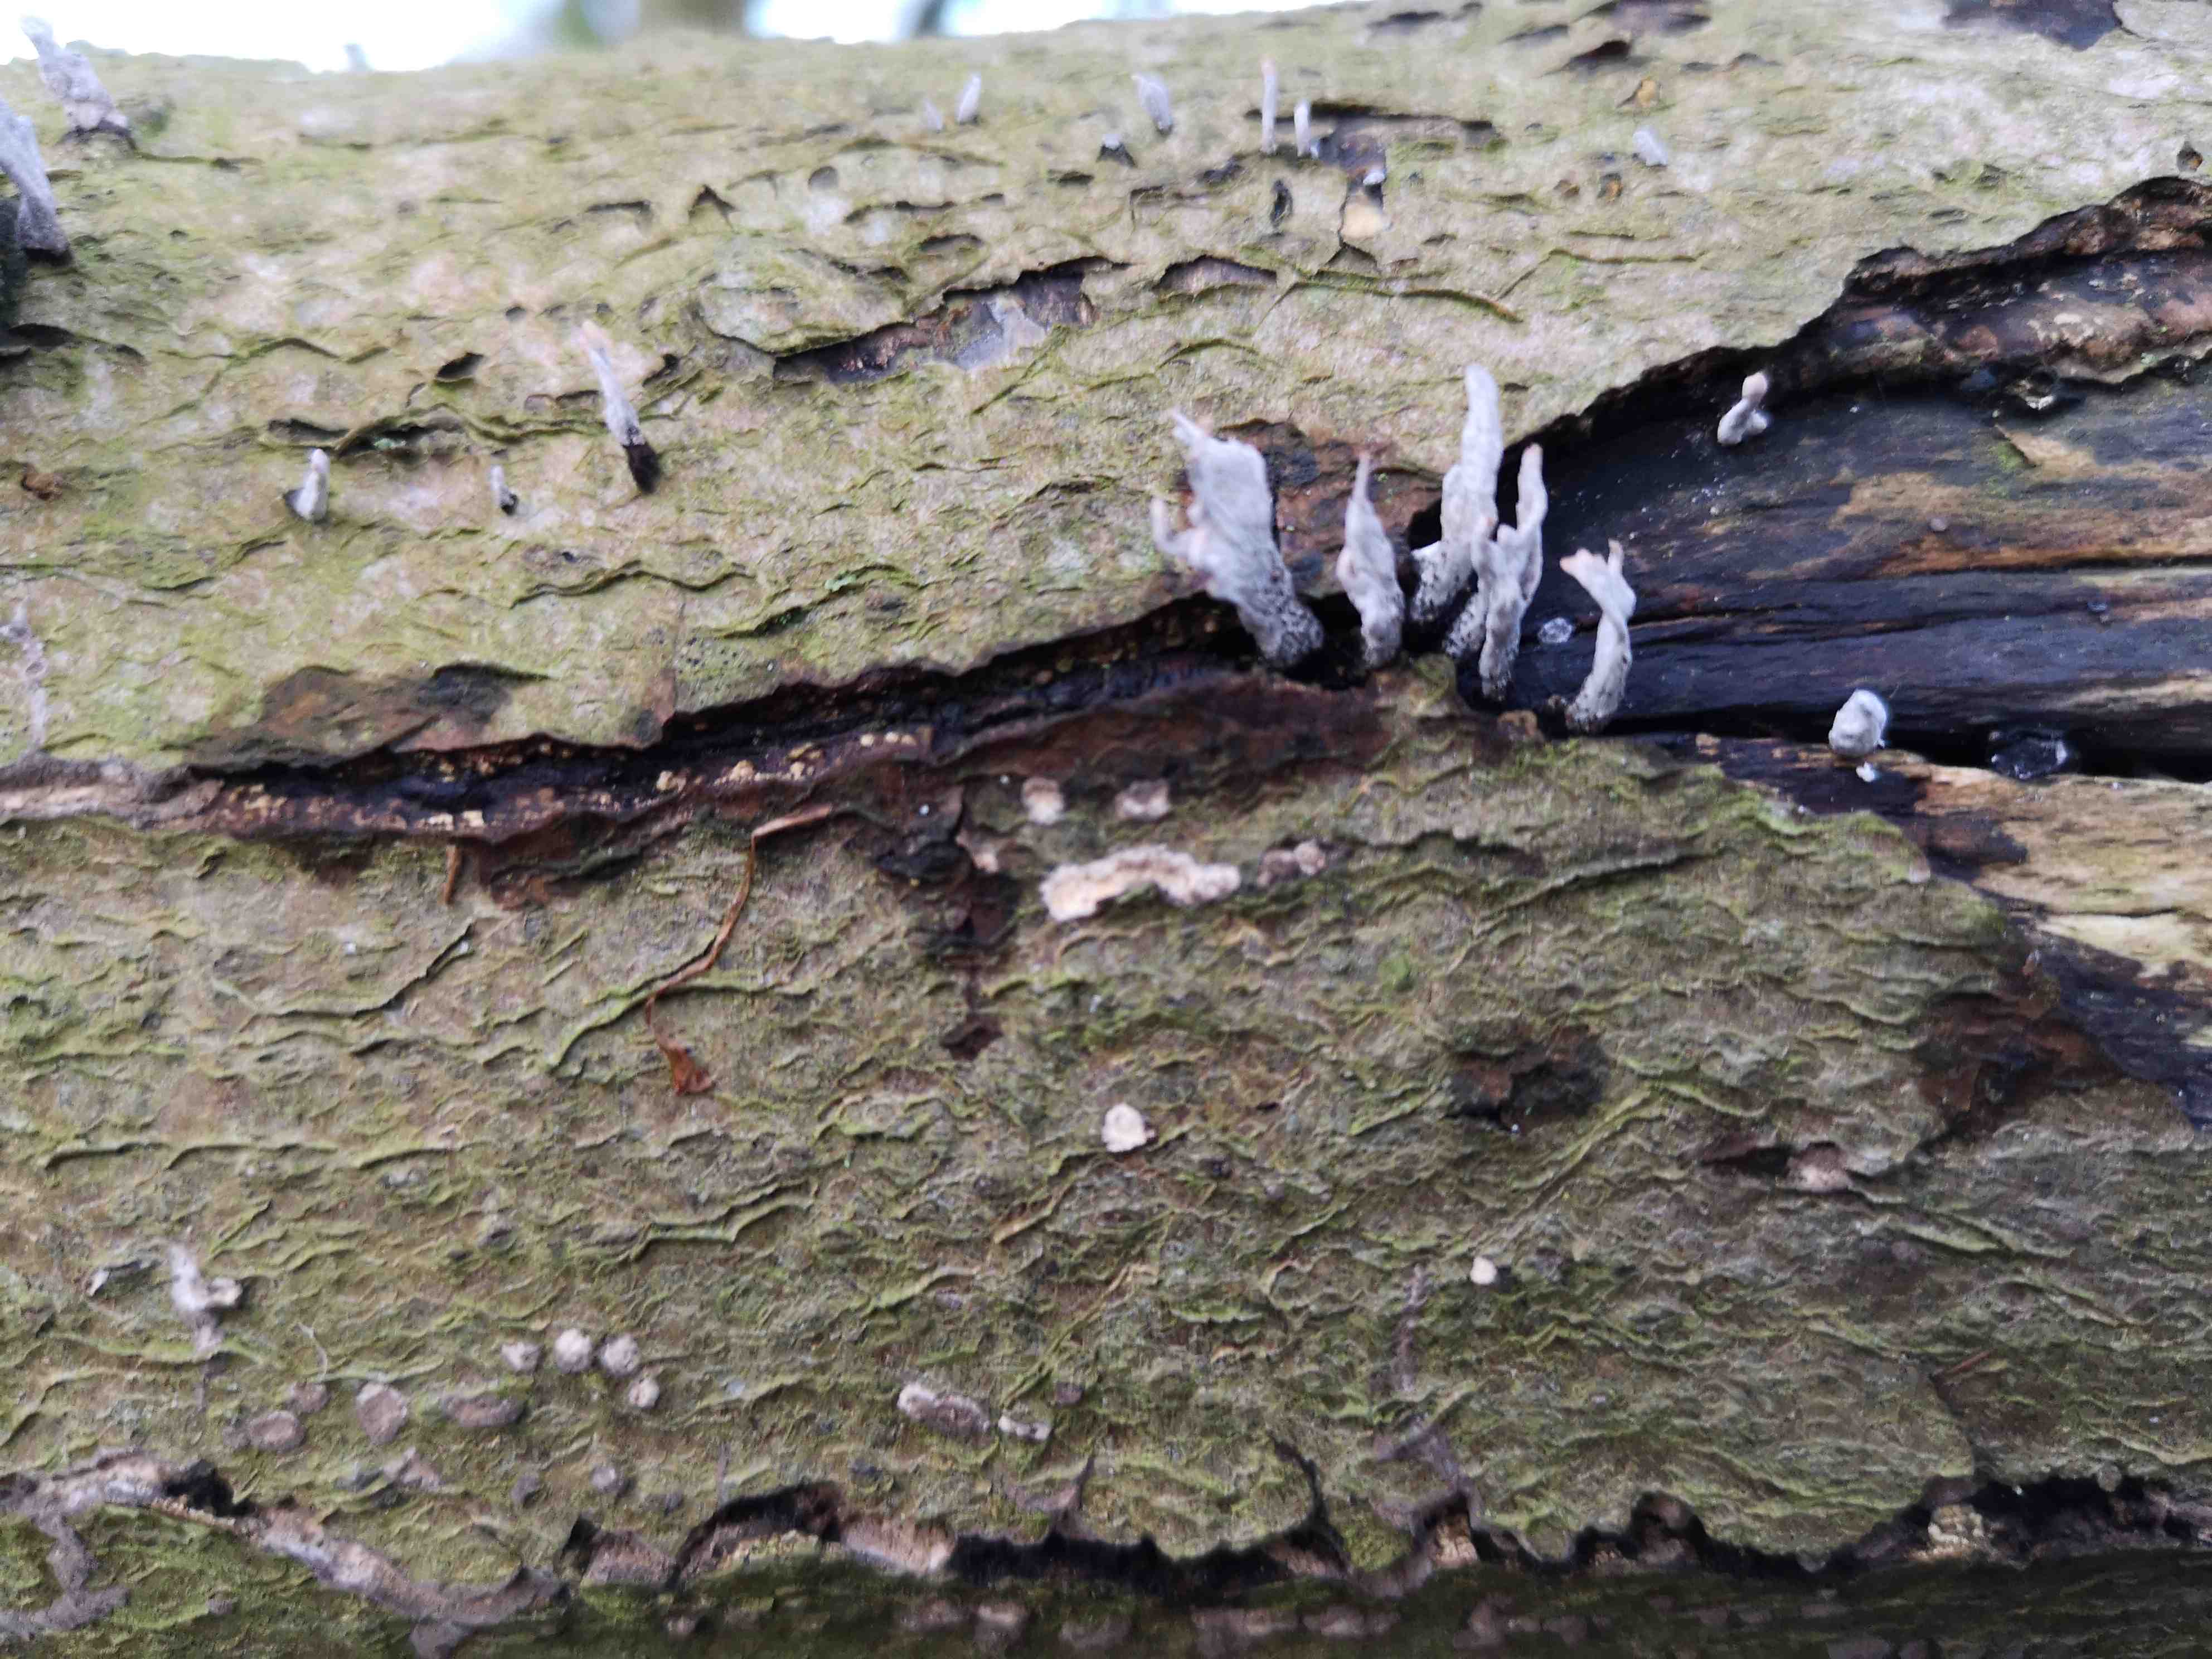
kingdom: Fungi
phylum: Ascomycota
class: Sordariomycetes
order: Xylariales
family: Xylariaceae
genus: Xylaria
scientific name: Xylaria hypoxylon
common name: grenet stødsvamp
